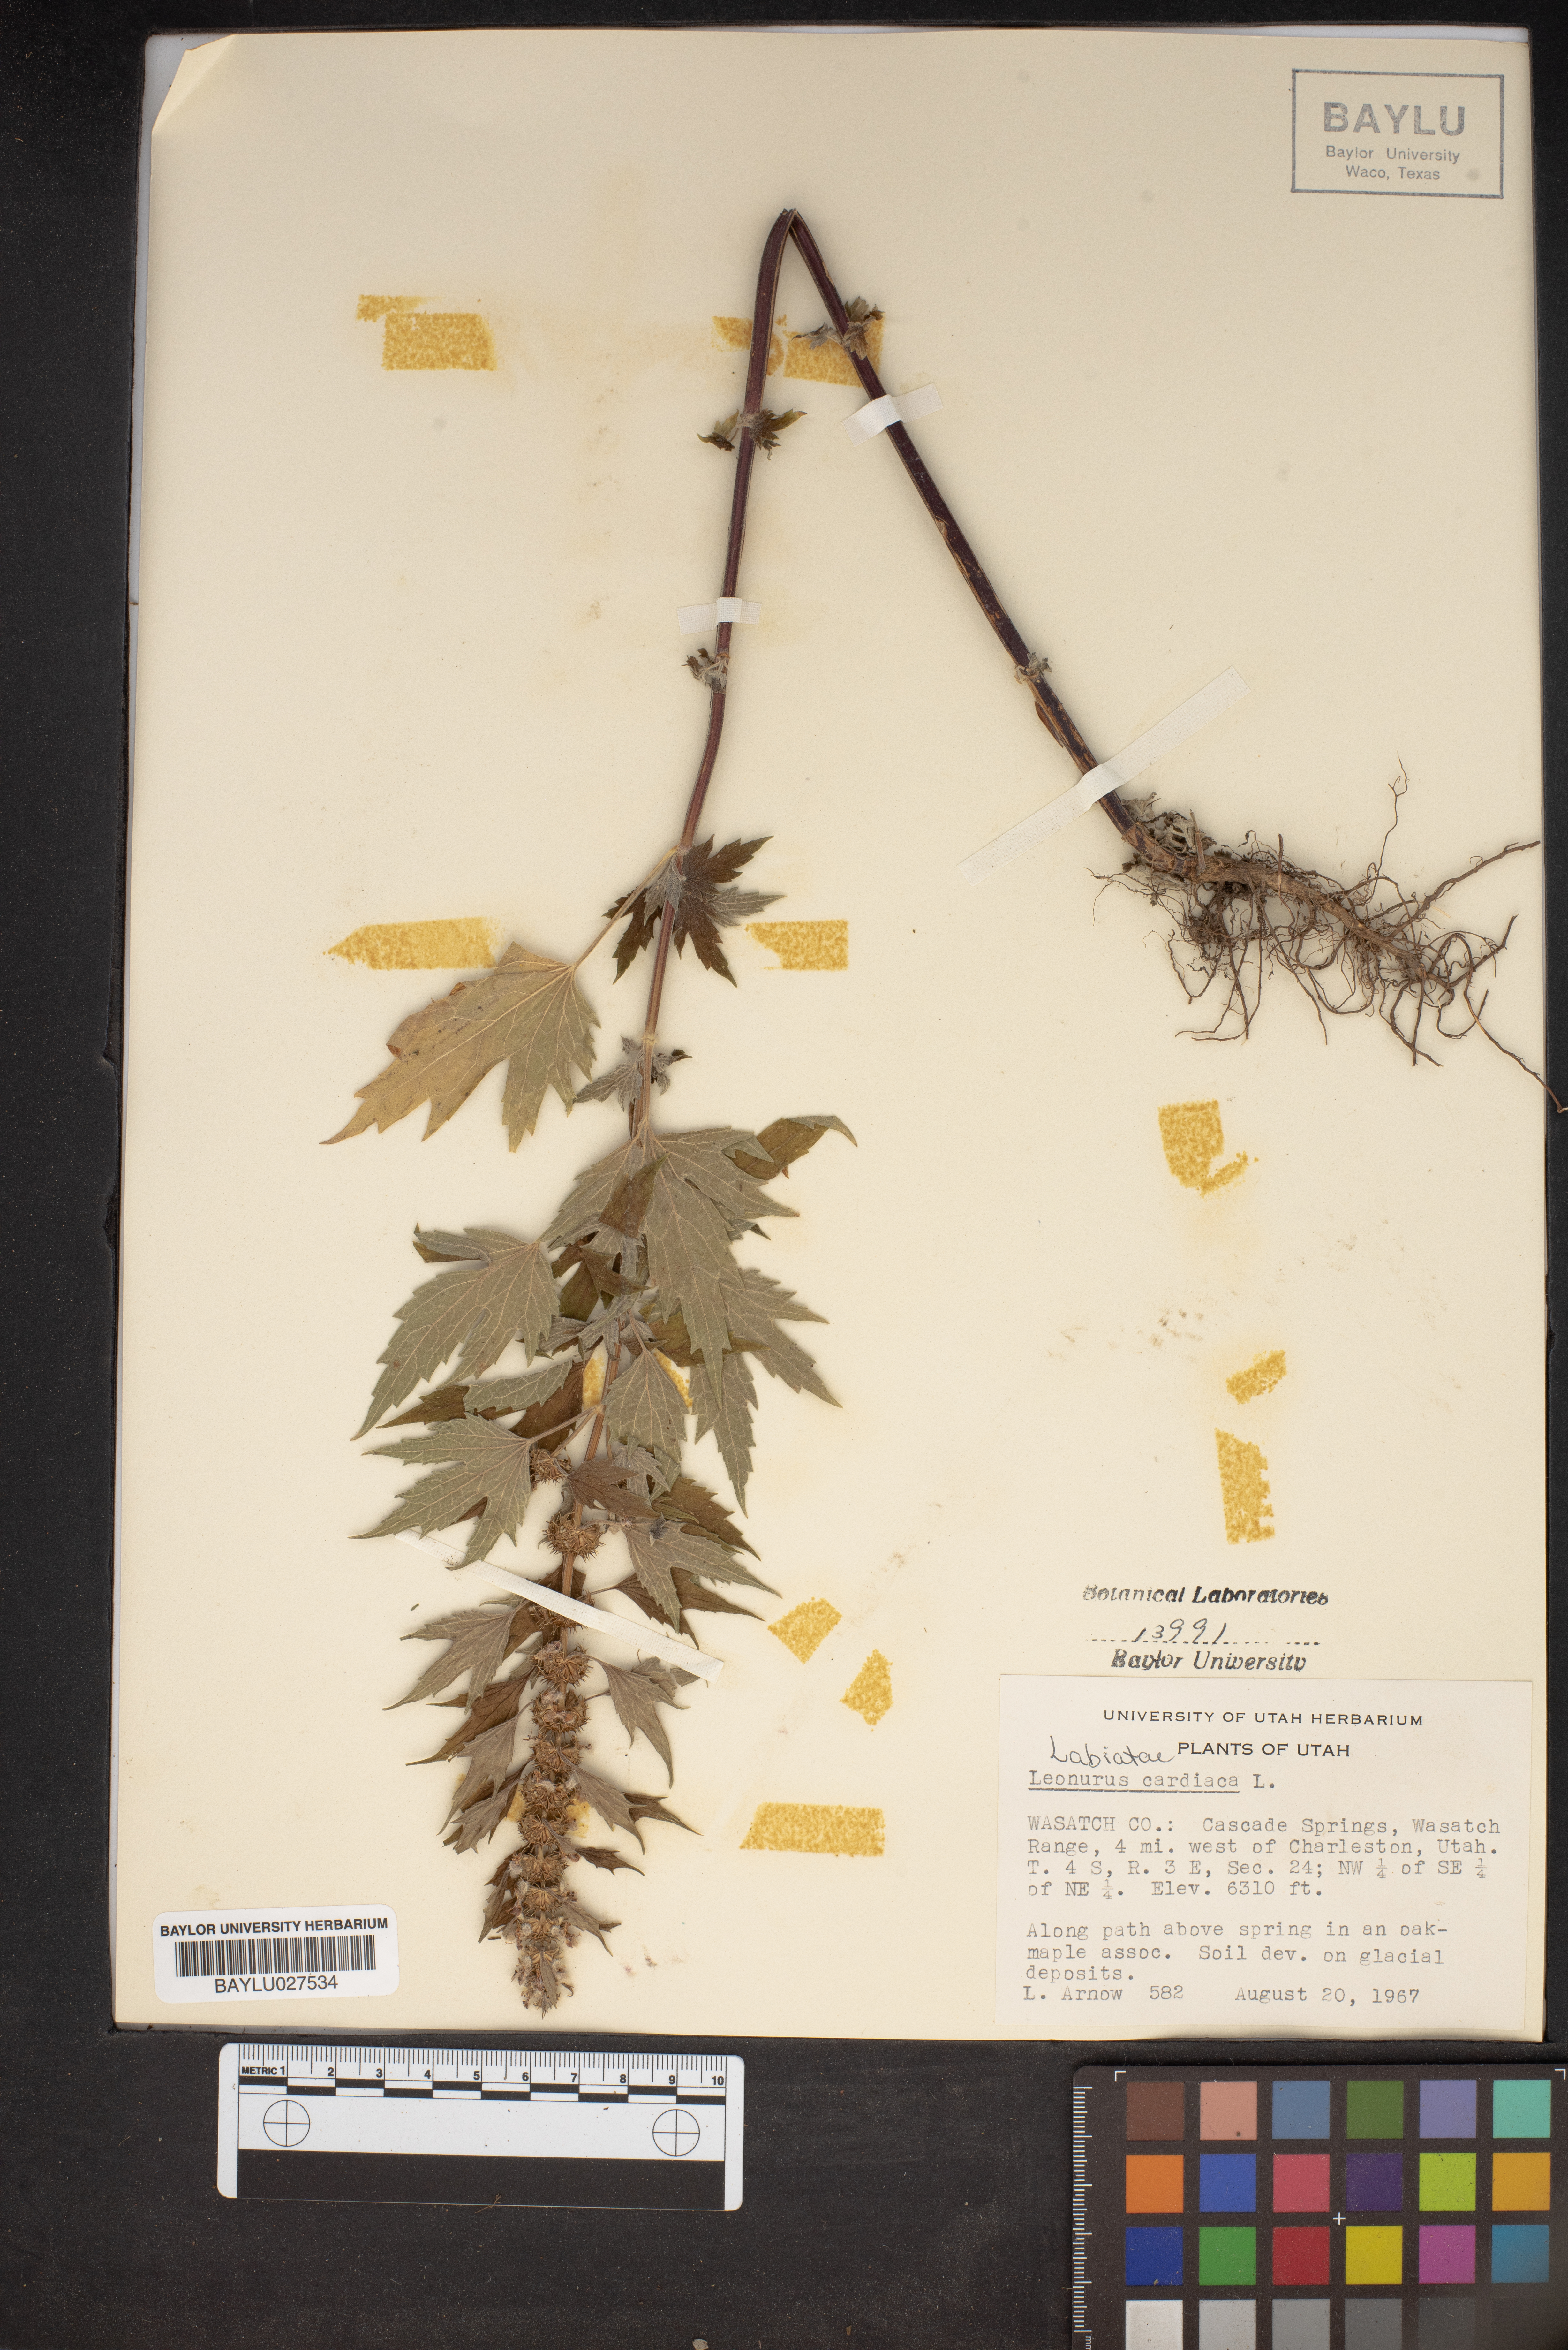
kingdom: Plantae
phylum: Tracheophyta
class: Magnoliopsida
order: Lamiales
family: Lamiaceae
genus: Leonurus
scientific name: Leonurus cardiaca
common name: Motherwort
